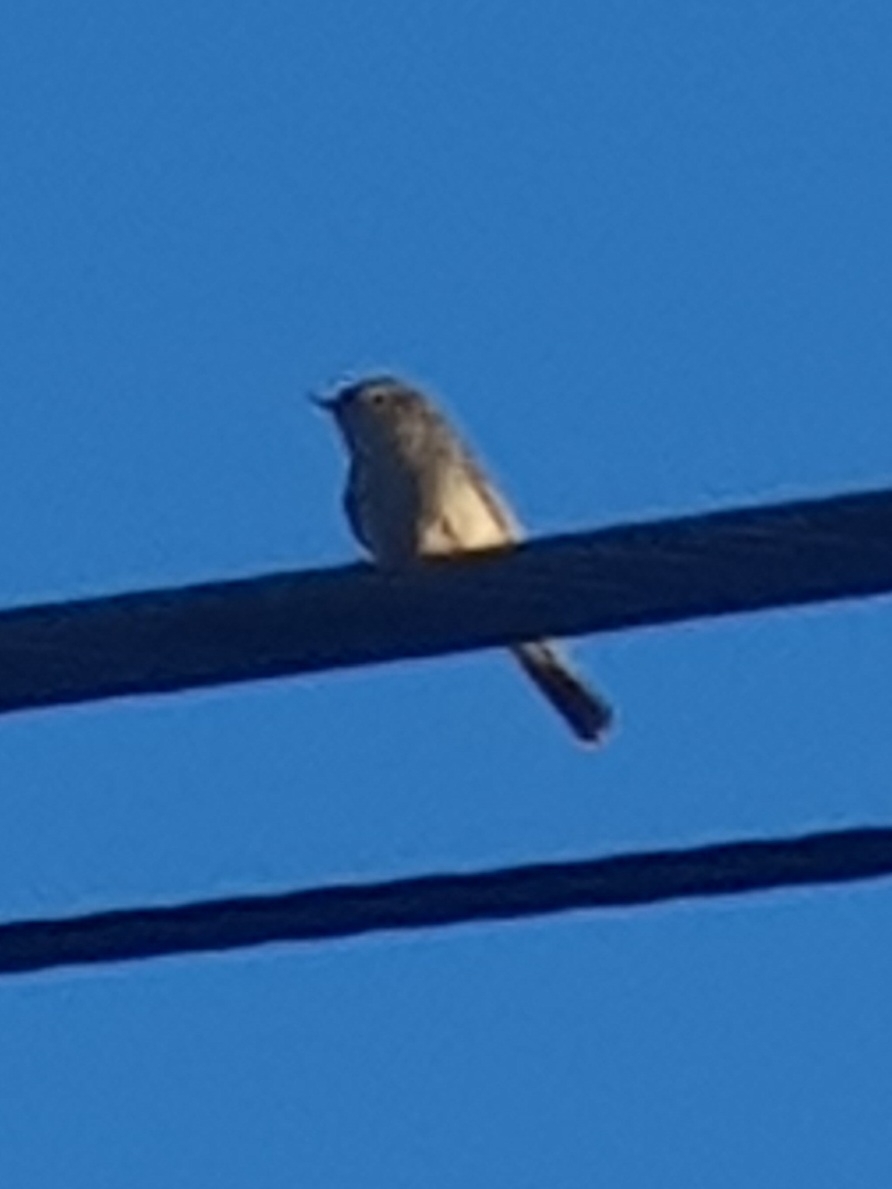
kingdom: Animalia
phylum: Chordata
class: Aves
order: Passeriformes
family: Phylloscopidae
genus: Phylloscopus
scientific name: Phylloscopus collybita
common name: Gransanger
